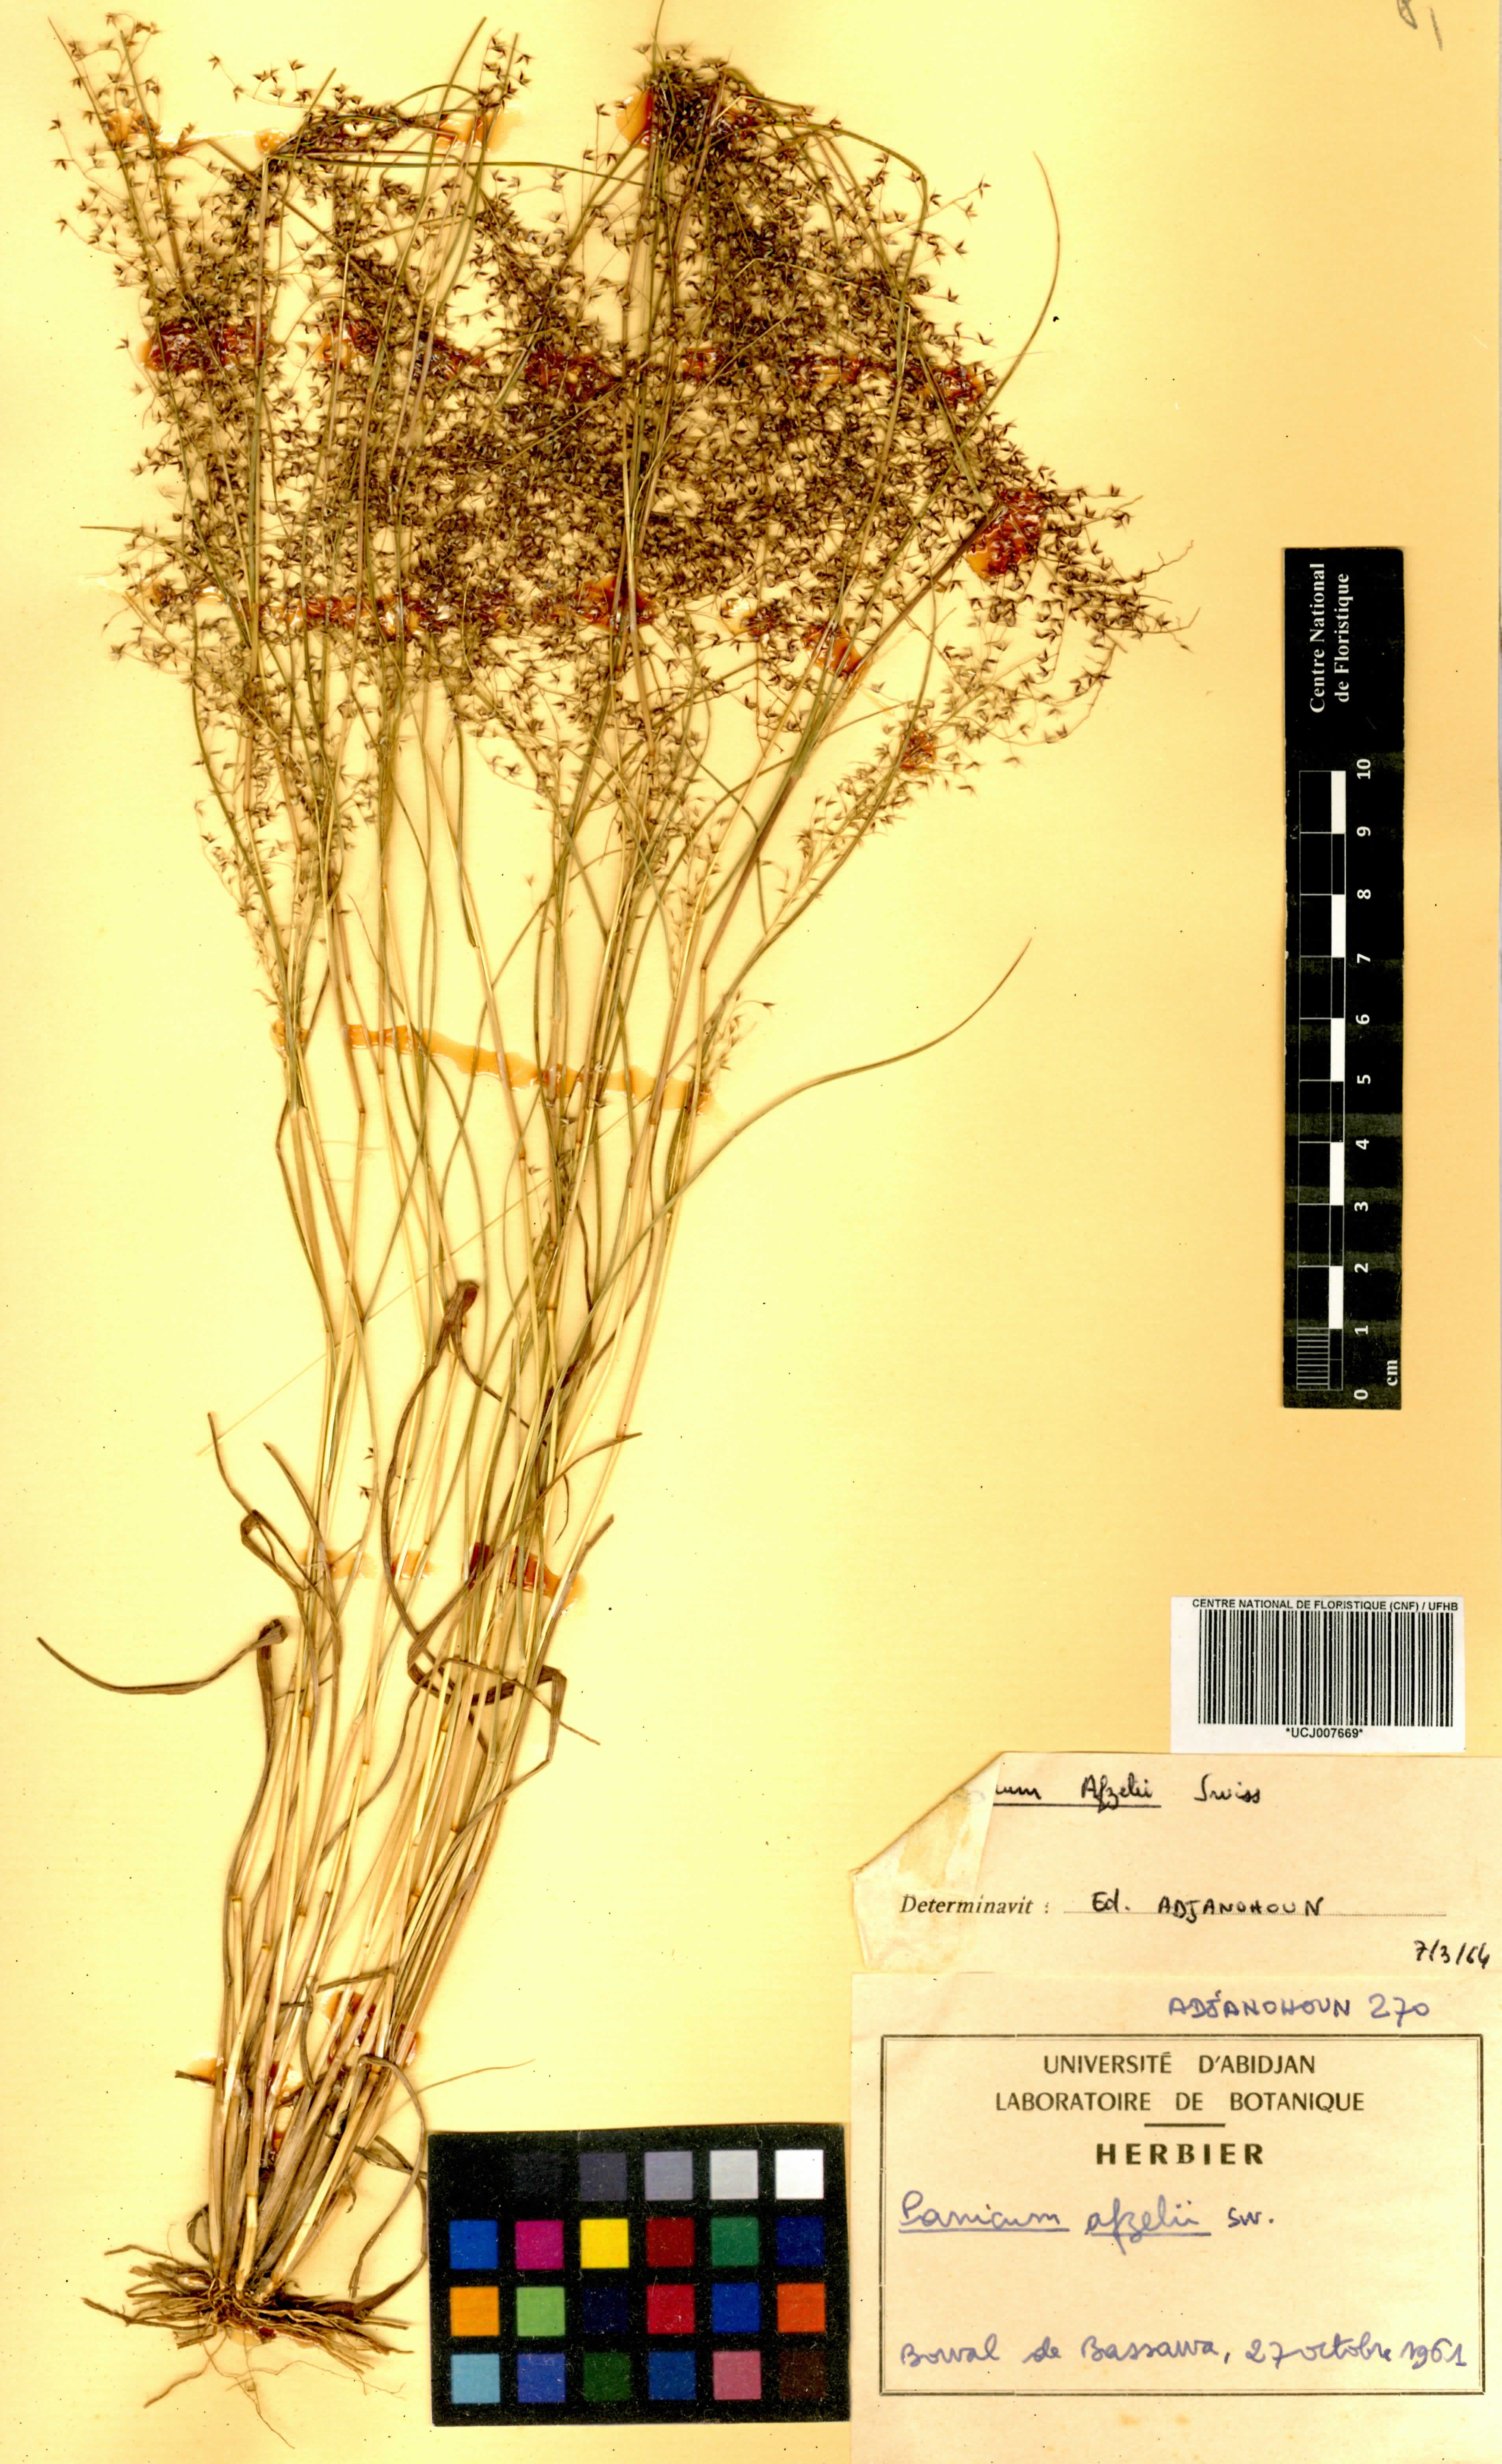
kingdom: Plantae
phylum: Tracheophyta
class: Liliopsida
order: Poales
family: Poaceae
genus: Panicum
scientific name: Panicum afzelii
